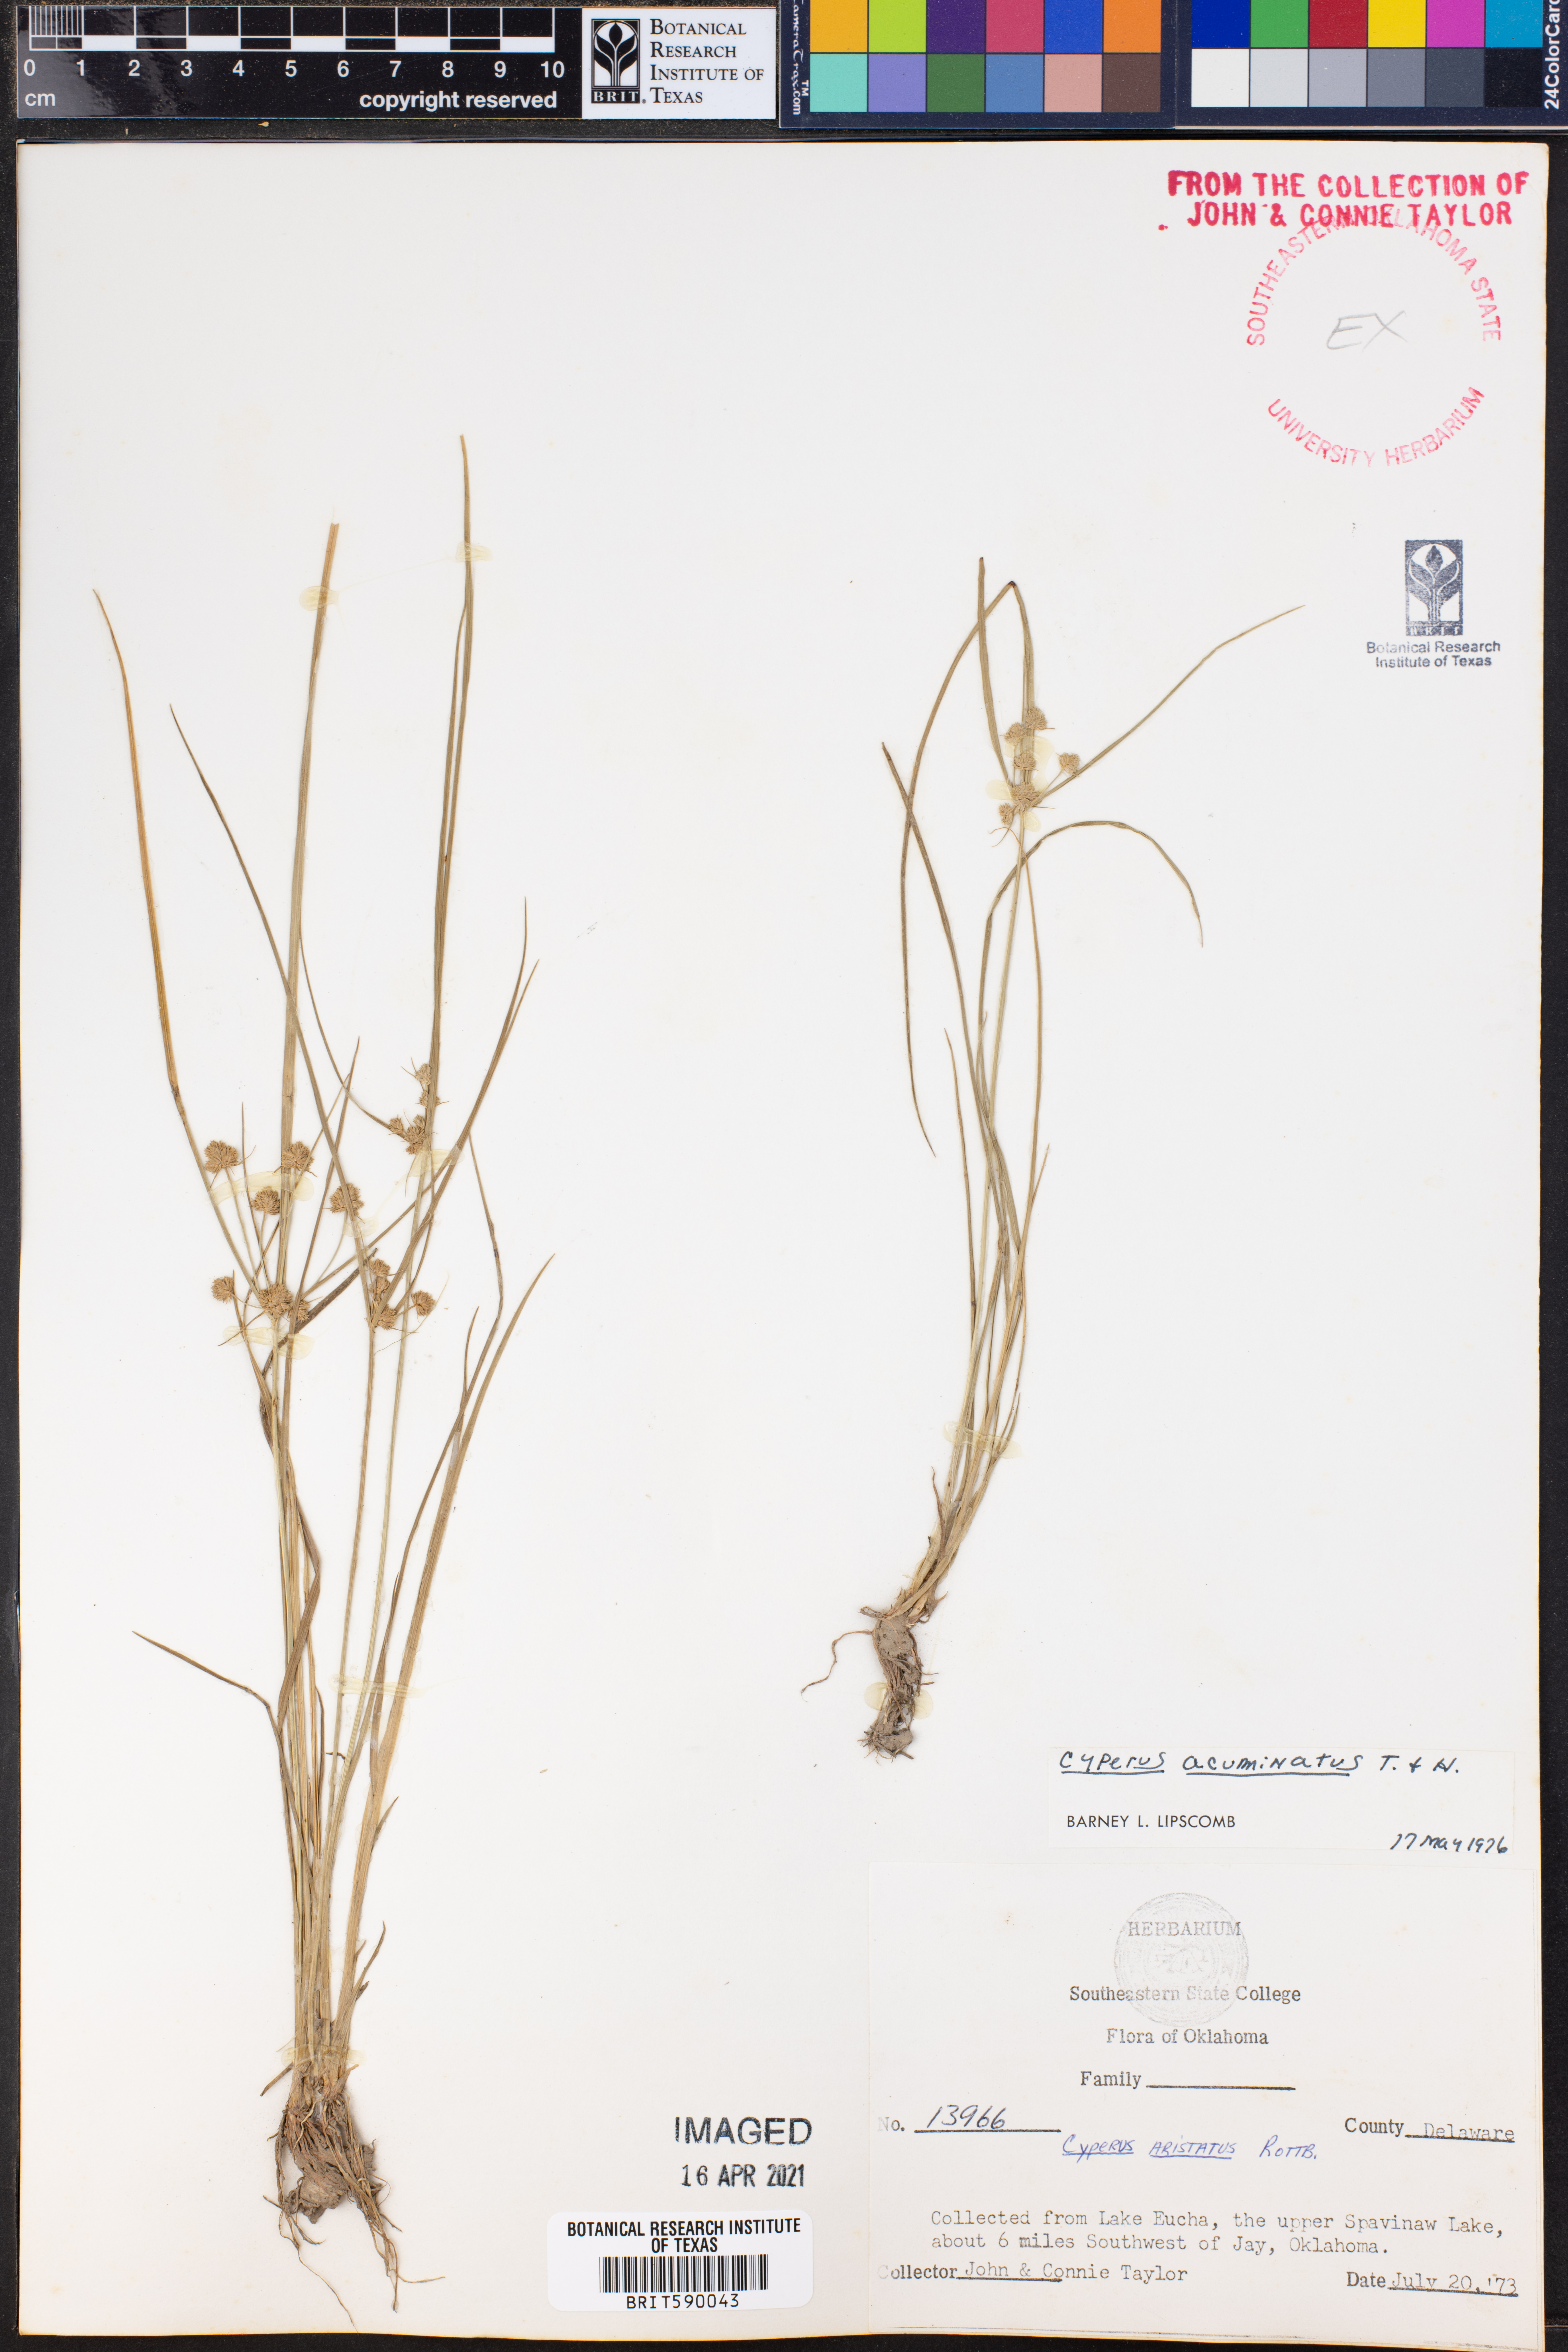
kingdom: Plantae
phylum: Tracheophyta
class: Liliopsida
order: Poales
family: Cyperaceae
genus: Cyperus
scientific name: Cyperus acuminatus
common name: Short-pointed cyperus
